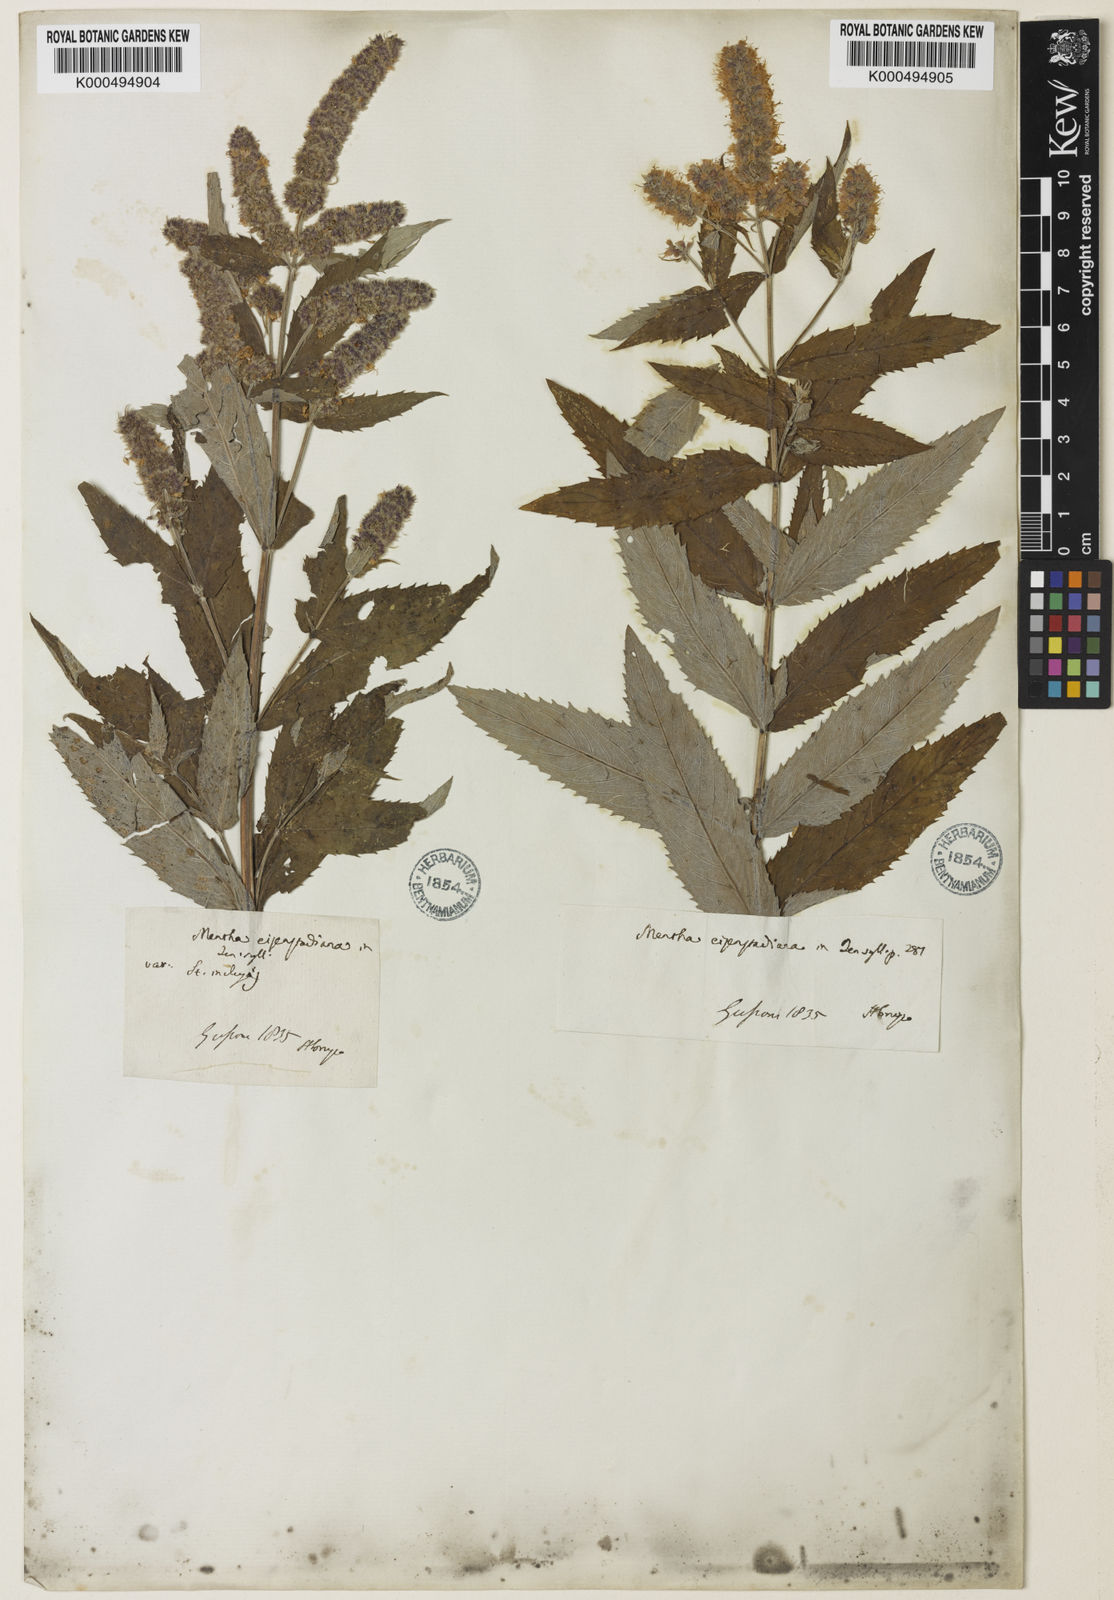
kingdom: Plantae
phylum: Tracheophyta
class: Magnoliopsida
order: Lamiales
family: Lamiaceae
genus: Mentha
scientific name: Mentha
